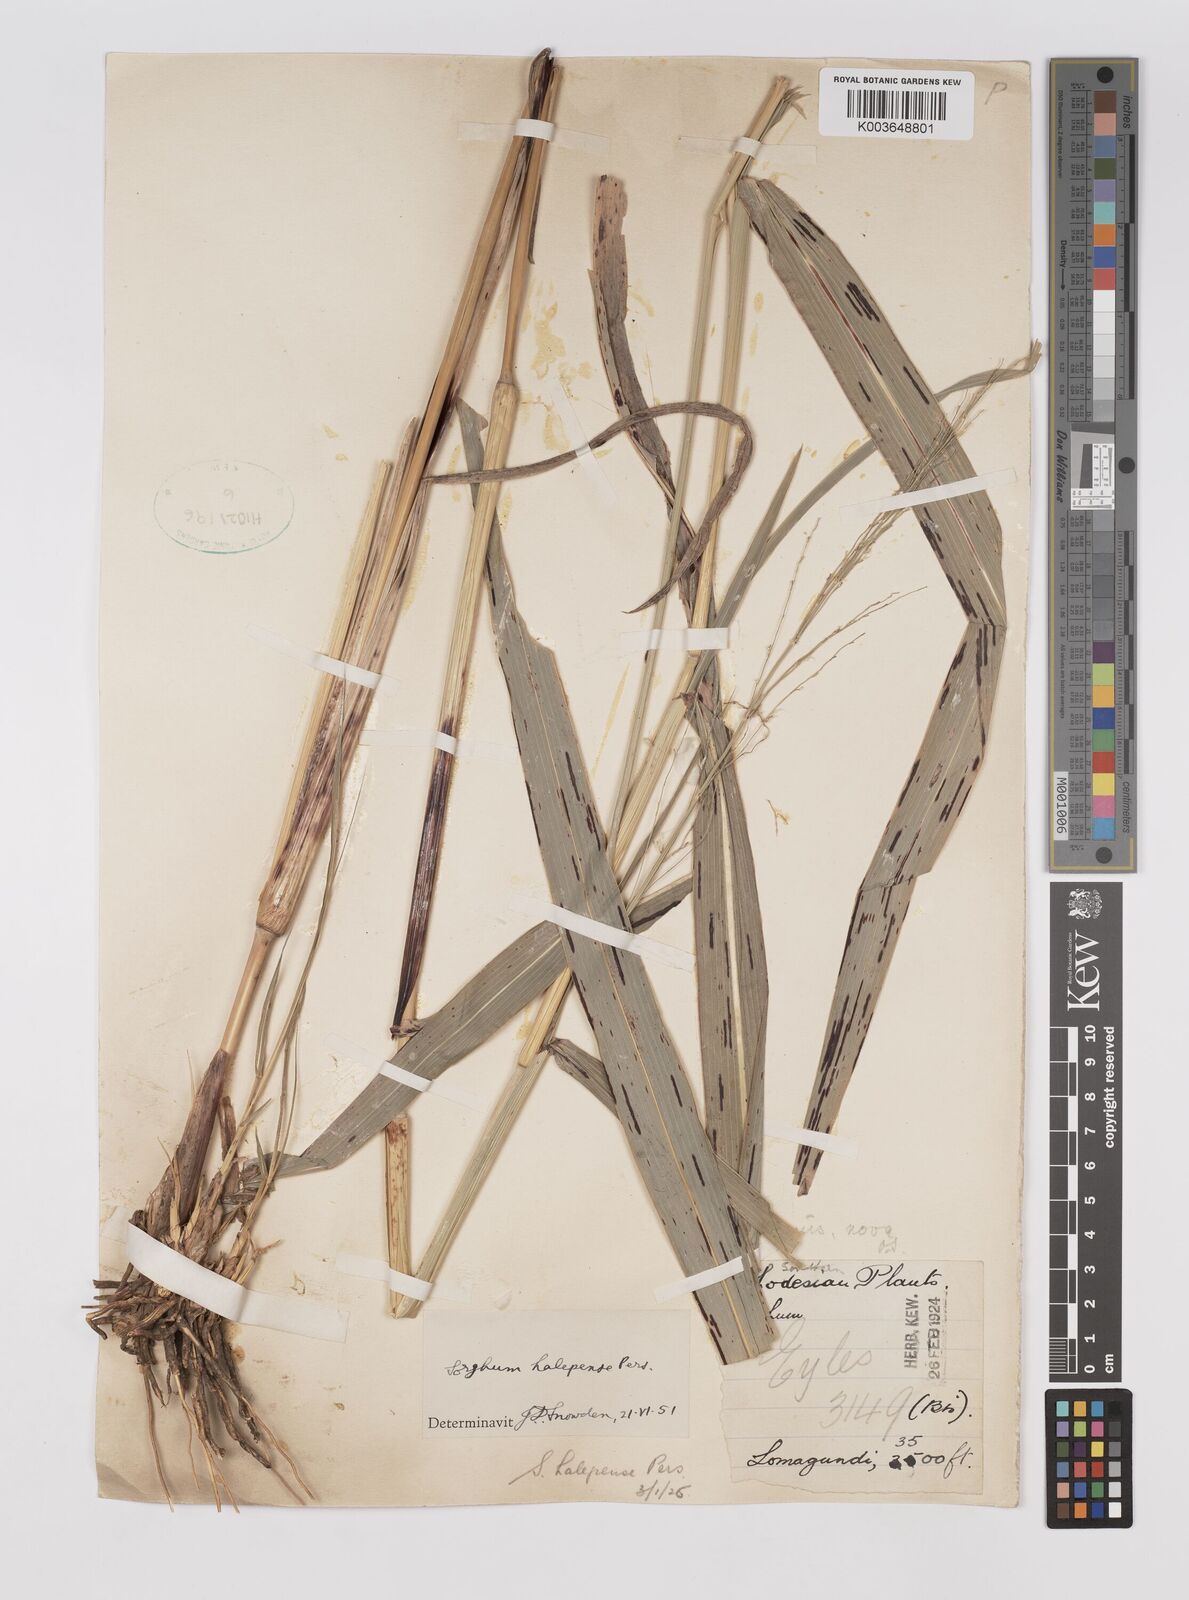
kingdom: Plantae
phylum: Tracheophyta
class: Liliopsida
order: Poales
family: Poaceae
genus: Sorghum
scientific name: Sorghum halepense
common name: Johnson-grass
